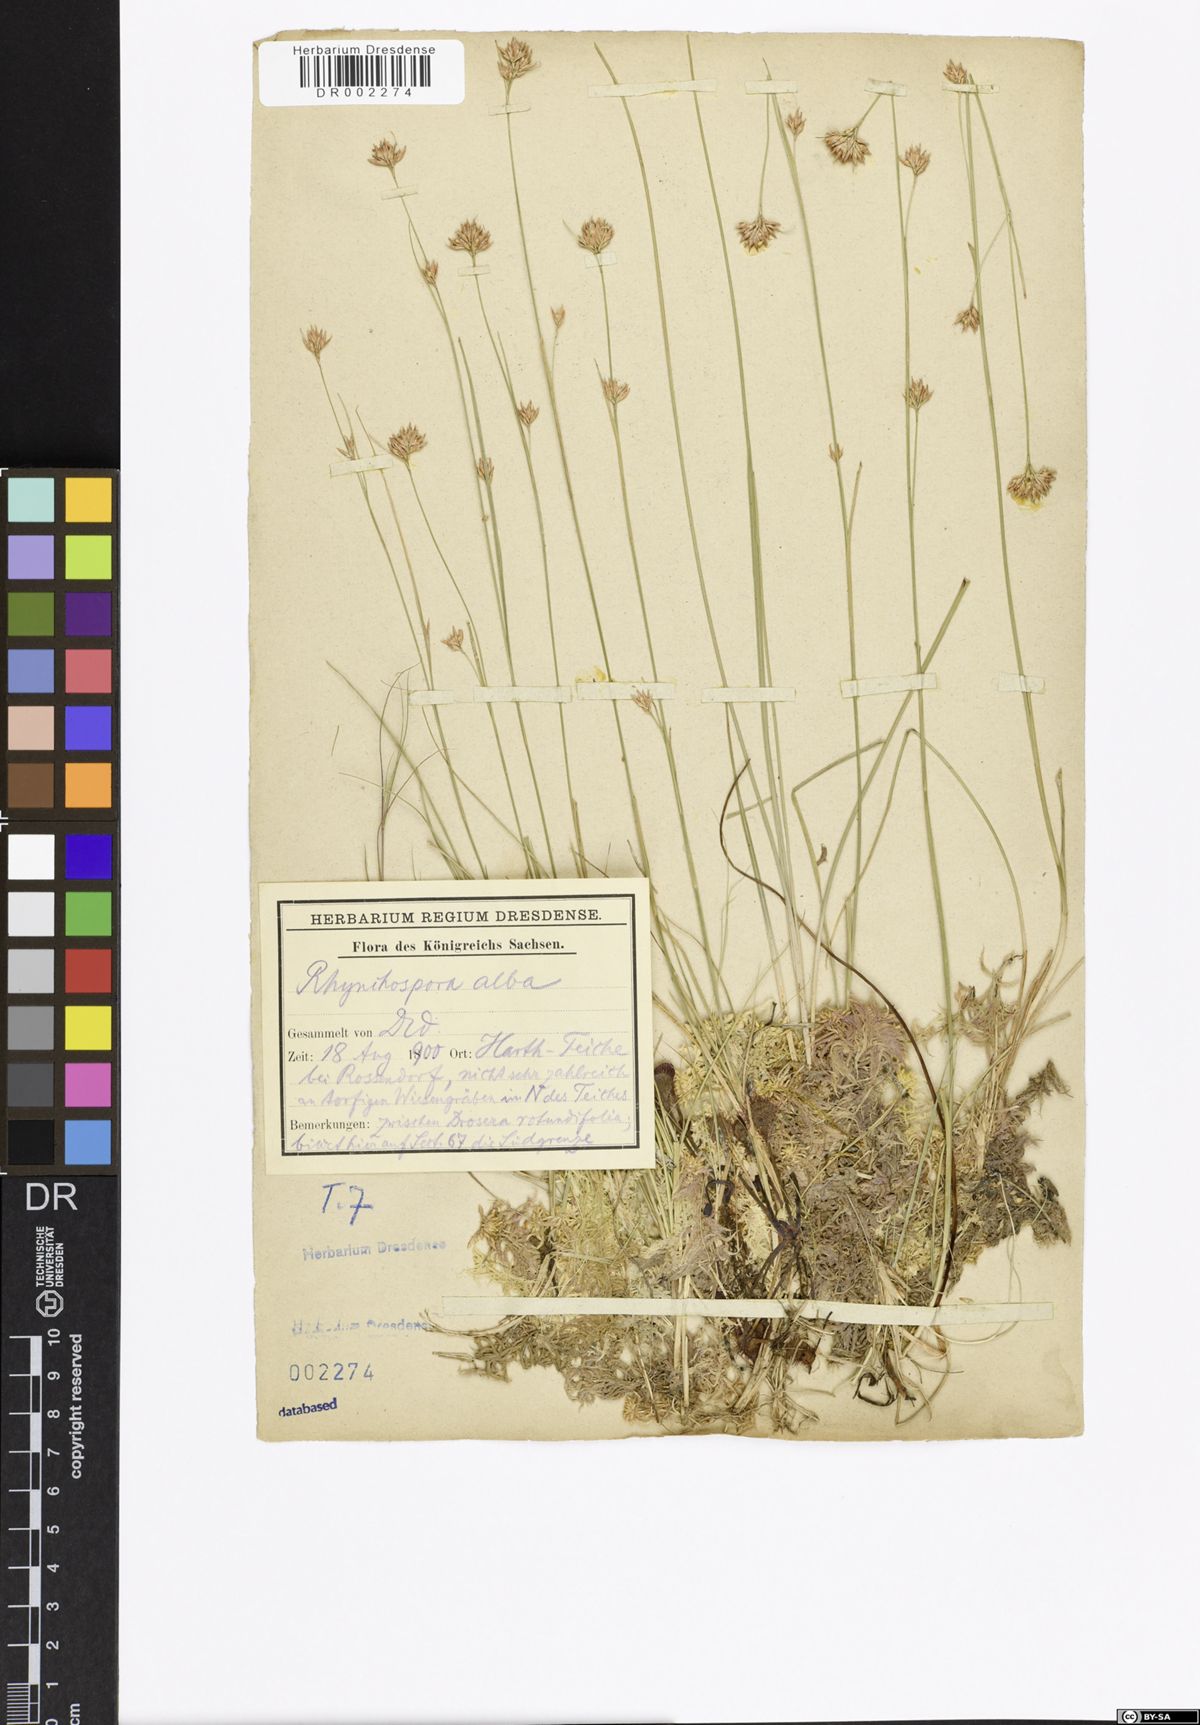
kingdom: Plantae
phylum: Tracheophyta
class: Liliopsida
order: Poales
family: Cyperaceae
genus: Rhynchospora
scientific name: Rhynchospora alba
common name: White beak-sedge
